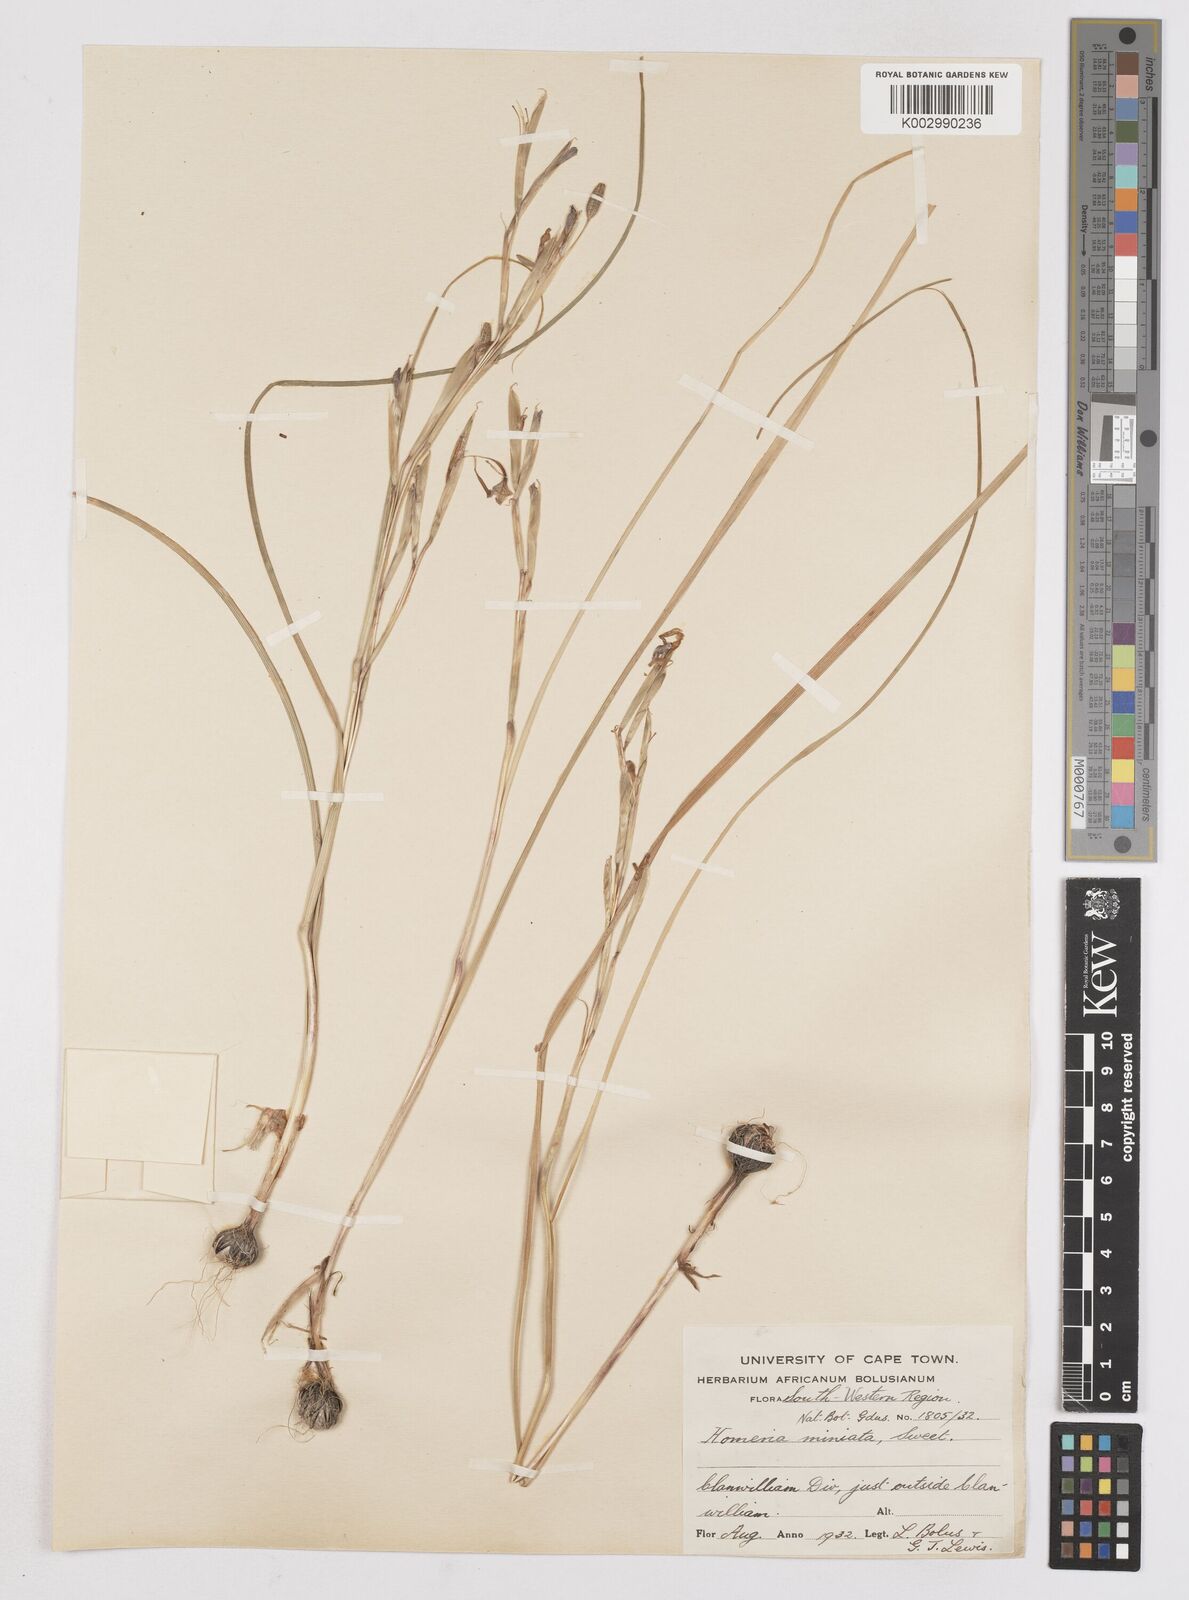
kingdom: Plantae
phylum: Tracheophyta
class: Liliopsida
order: Asparagales
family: Iridaceae
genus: Moraea
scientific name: Moraea miniata
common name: Two-leaf cape-tulip
